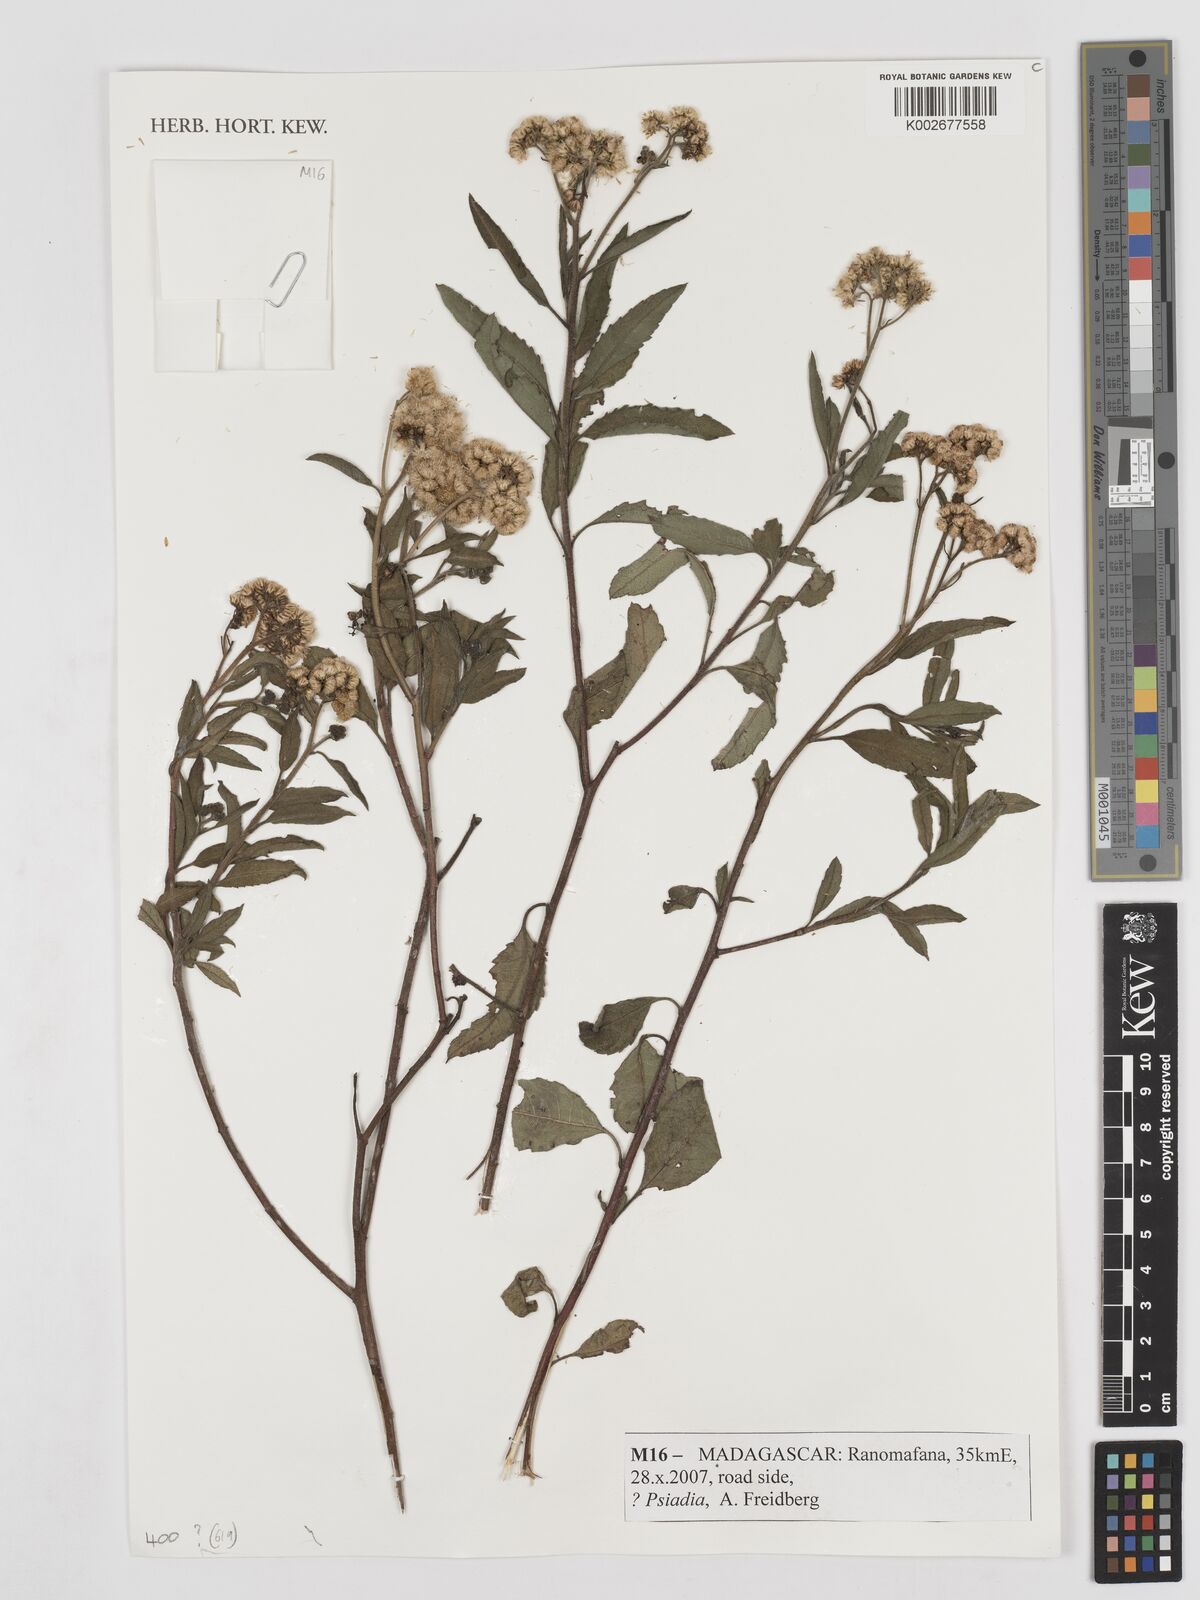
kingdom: Plantae
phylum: Tracheophyta
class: Magnoliopsida
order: Asterales
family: Asteraceae
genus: Psiadia
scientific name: Psiadia
